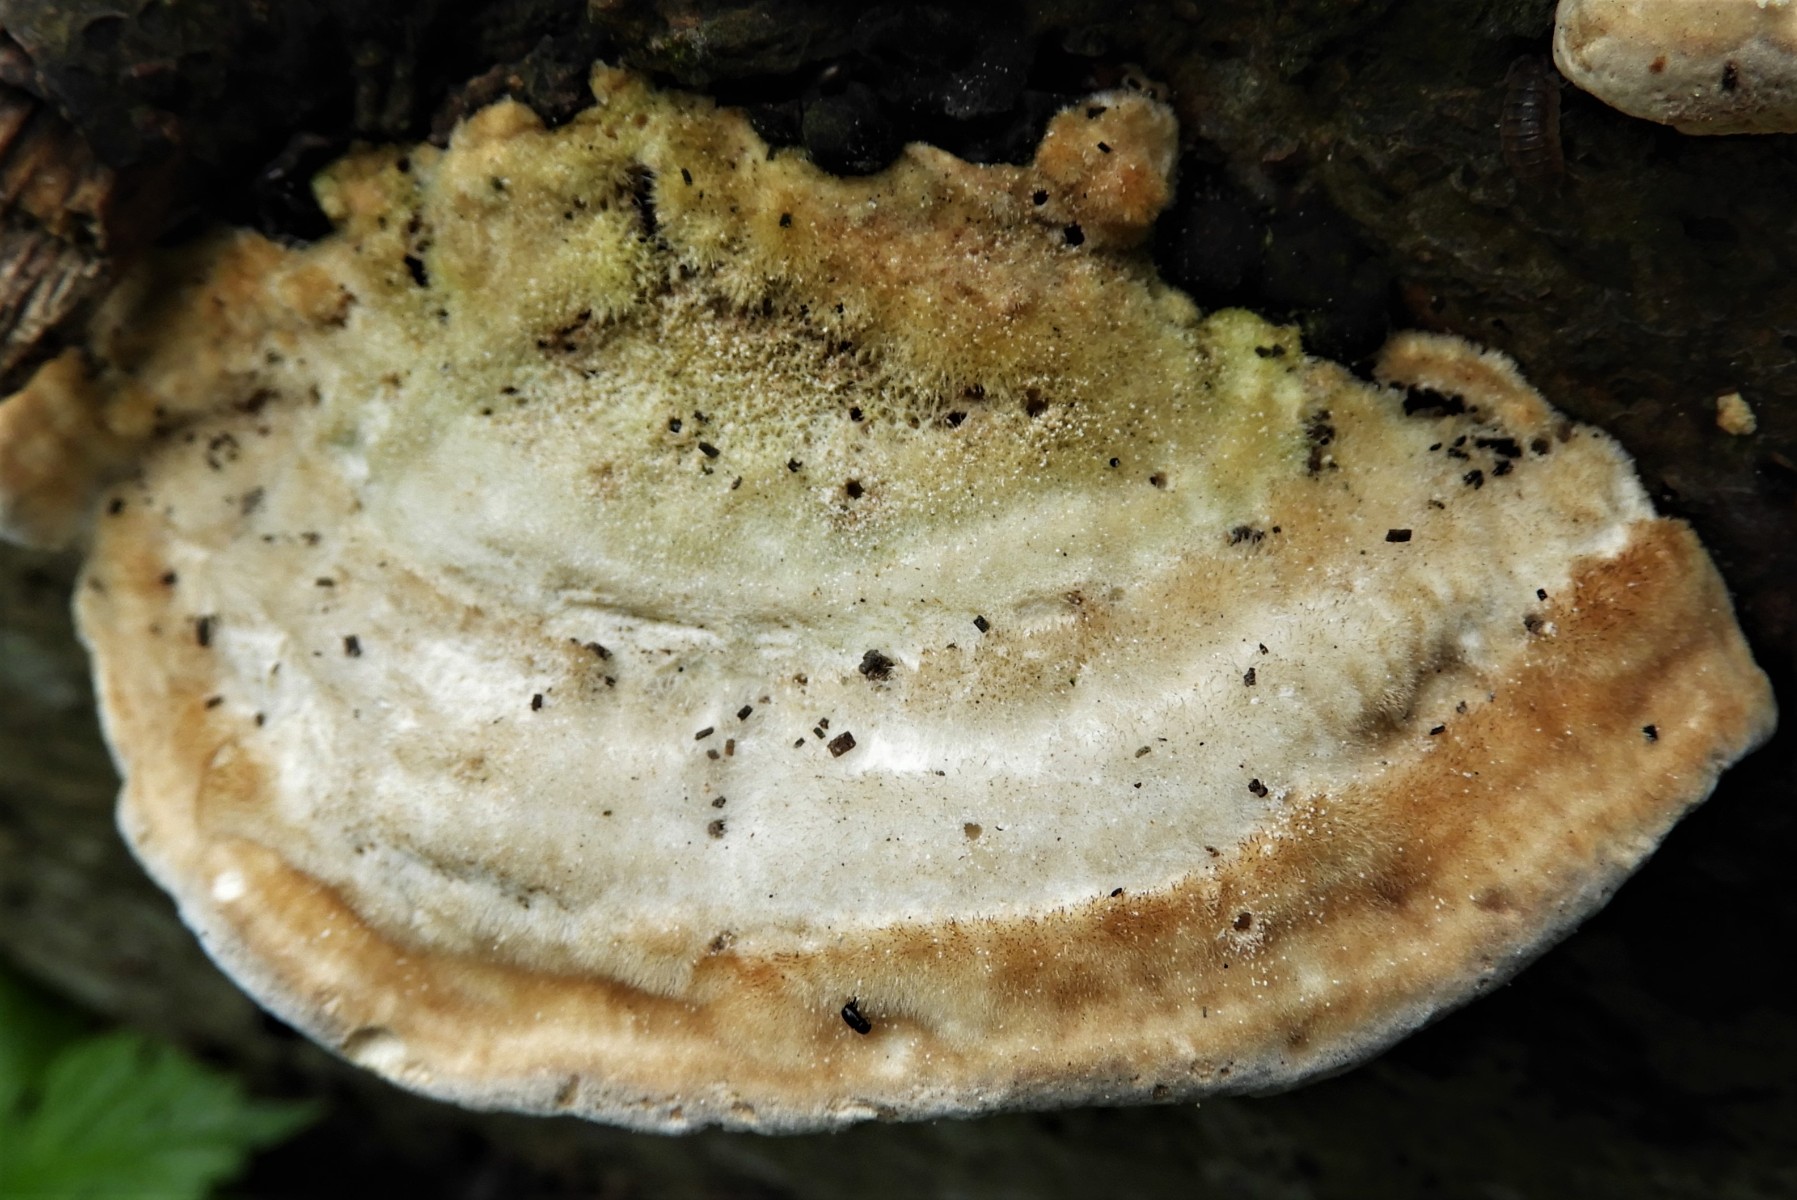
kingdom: Fungi
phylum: Basidiomycota
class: Agaricomycetes
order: Polyporales
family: Polyporaceae
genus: Trametes
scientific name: Trametes hirsuta
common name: håret læderporesvamp
